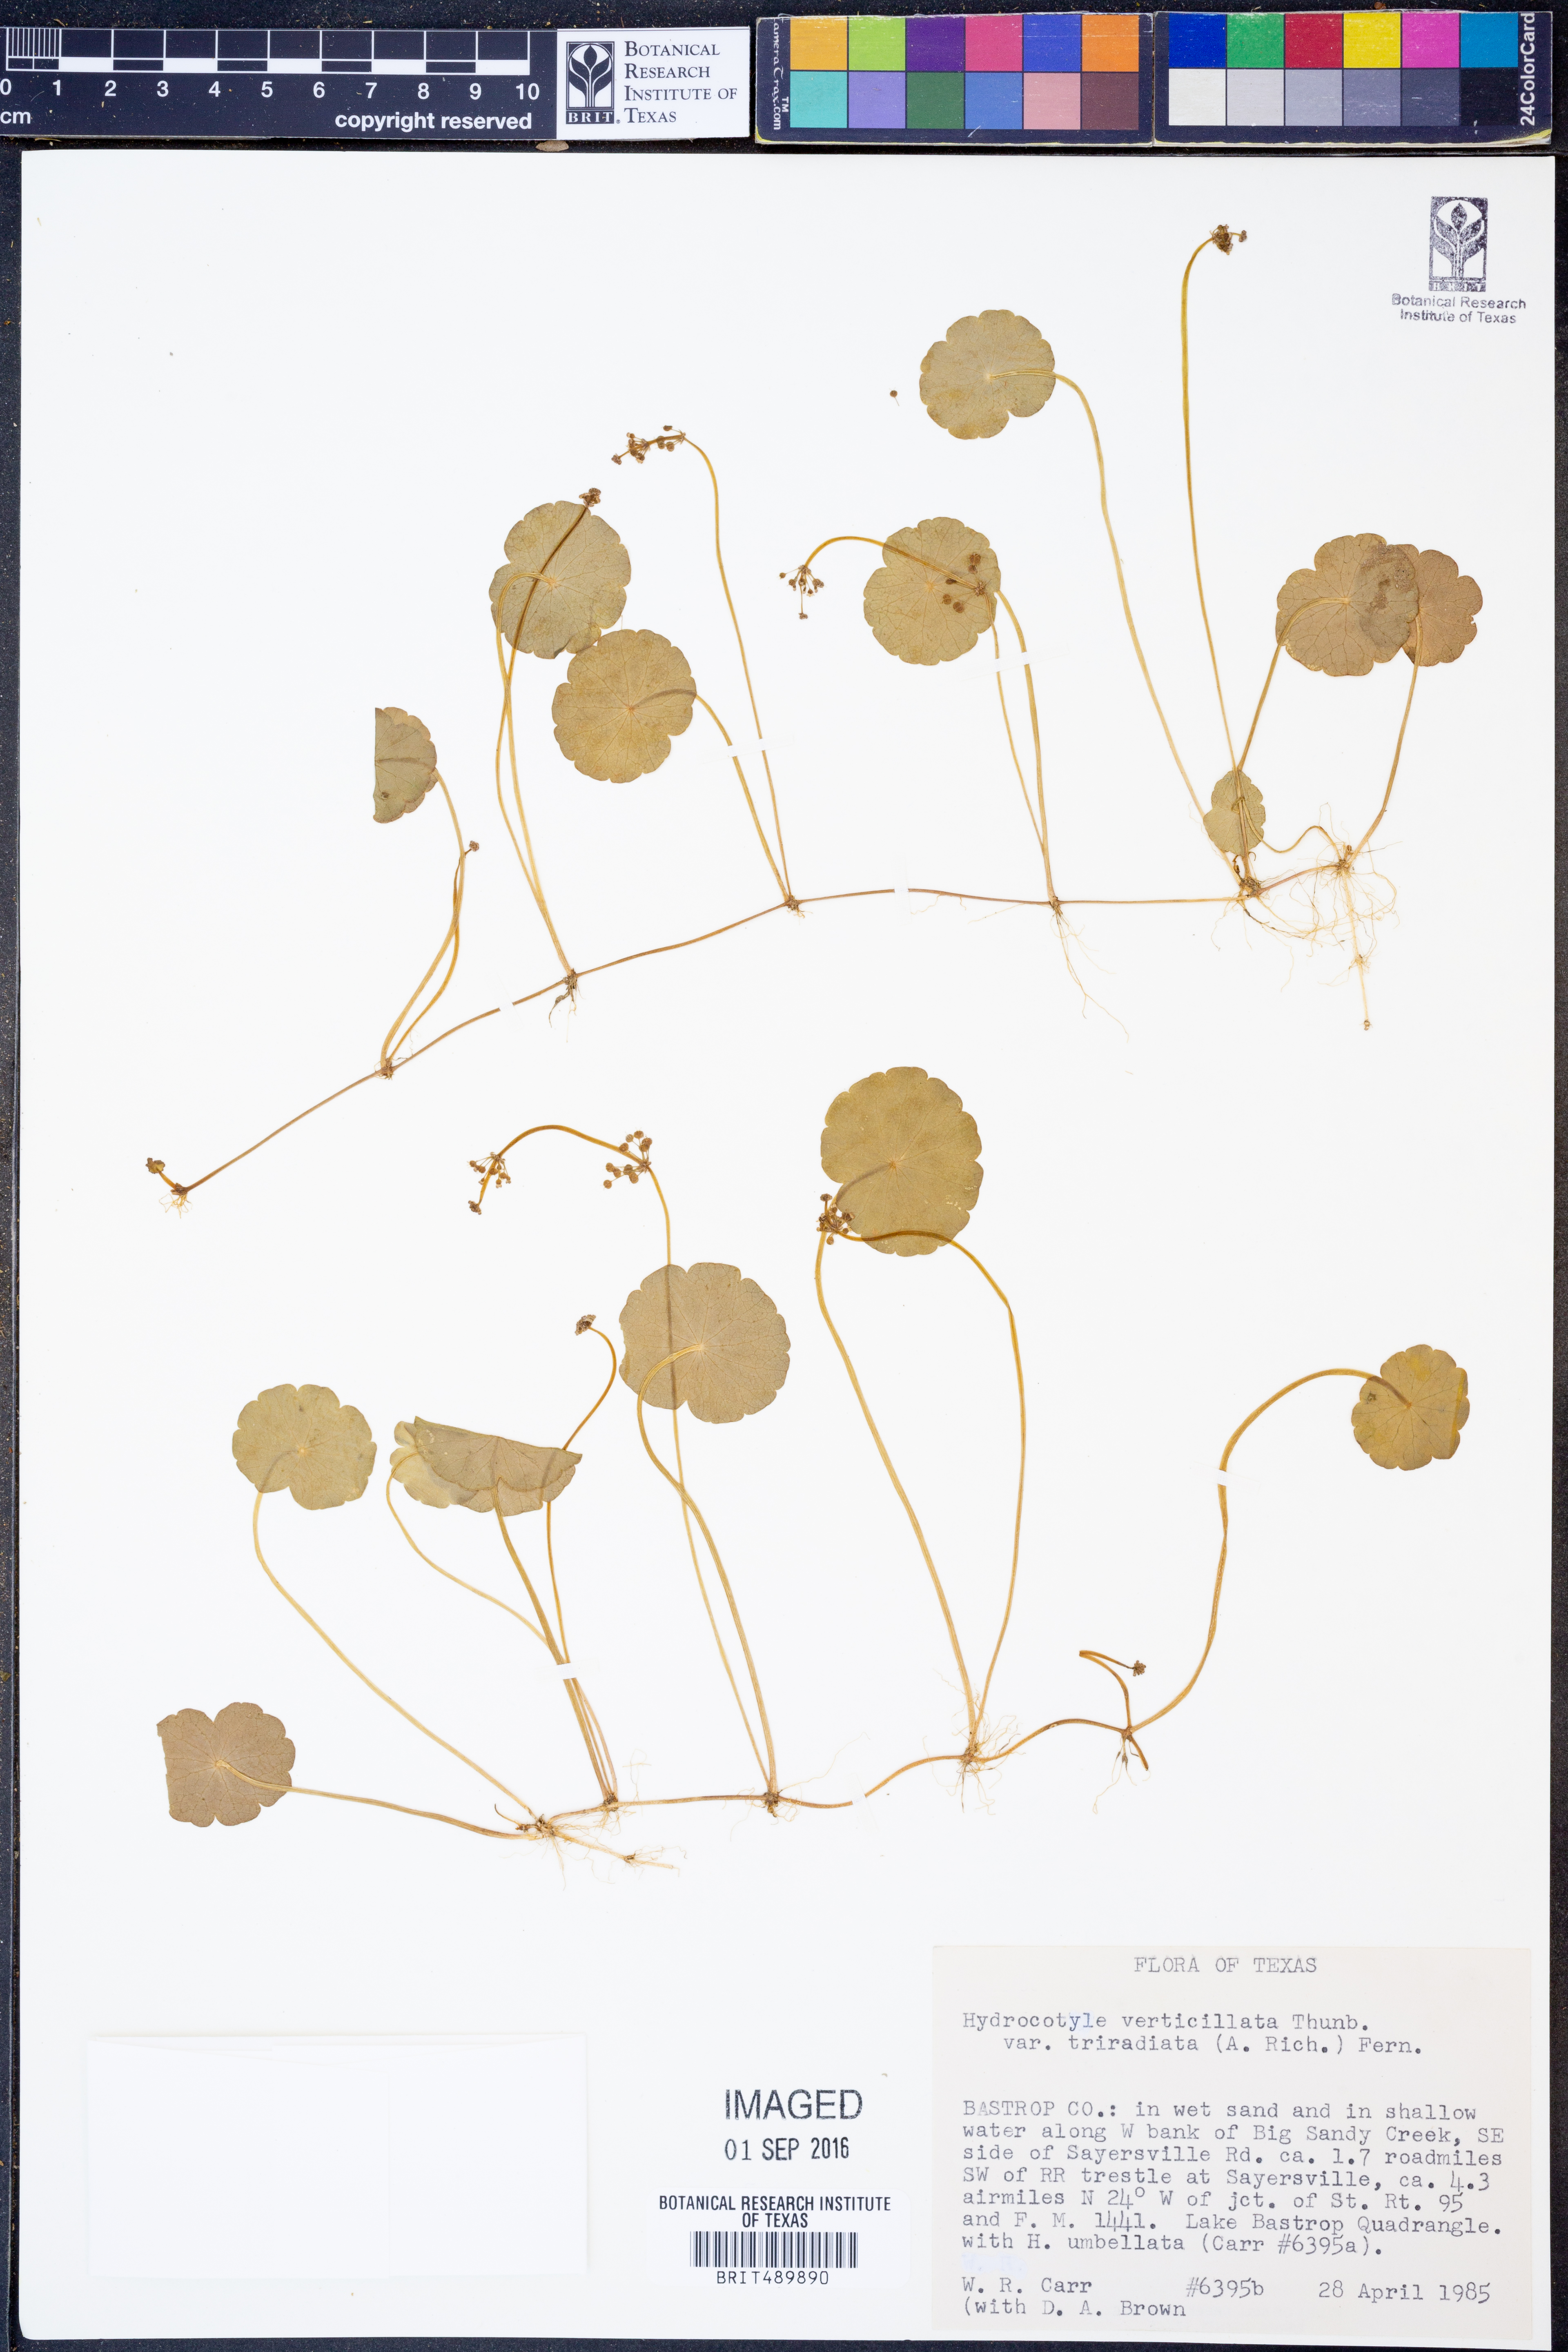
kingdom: Plantae
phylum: Tracheophyta
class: Magnoliopsida
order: Apiales
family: Araliaceae
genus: Hydrocotyle
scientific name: Hydrocotyle bonariensis
